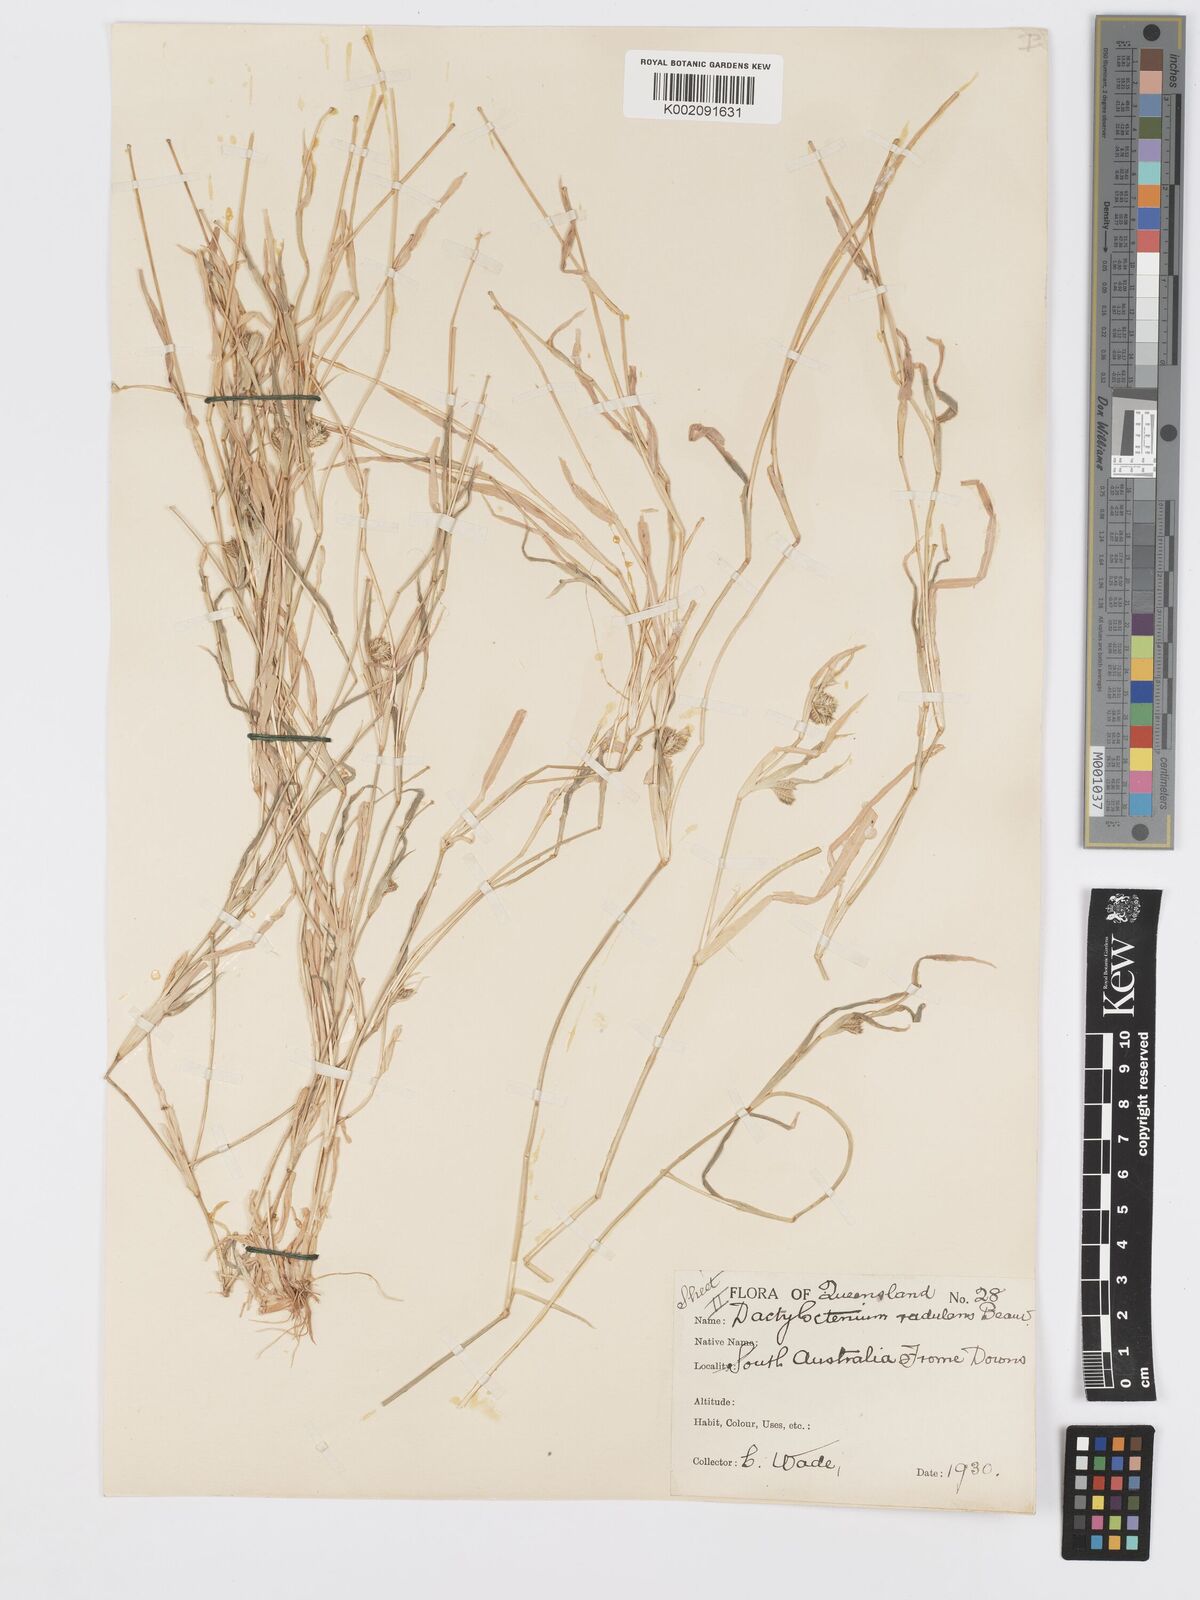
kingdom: Plantae
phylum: Tracheophyta
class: Liliopsida
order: Poales
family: Poaceae
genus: Dactyloctenium
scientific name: Dactyloctenium radulans
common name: Button-grass
